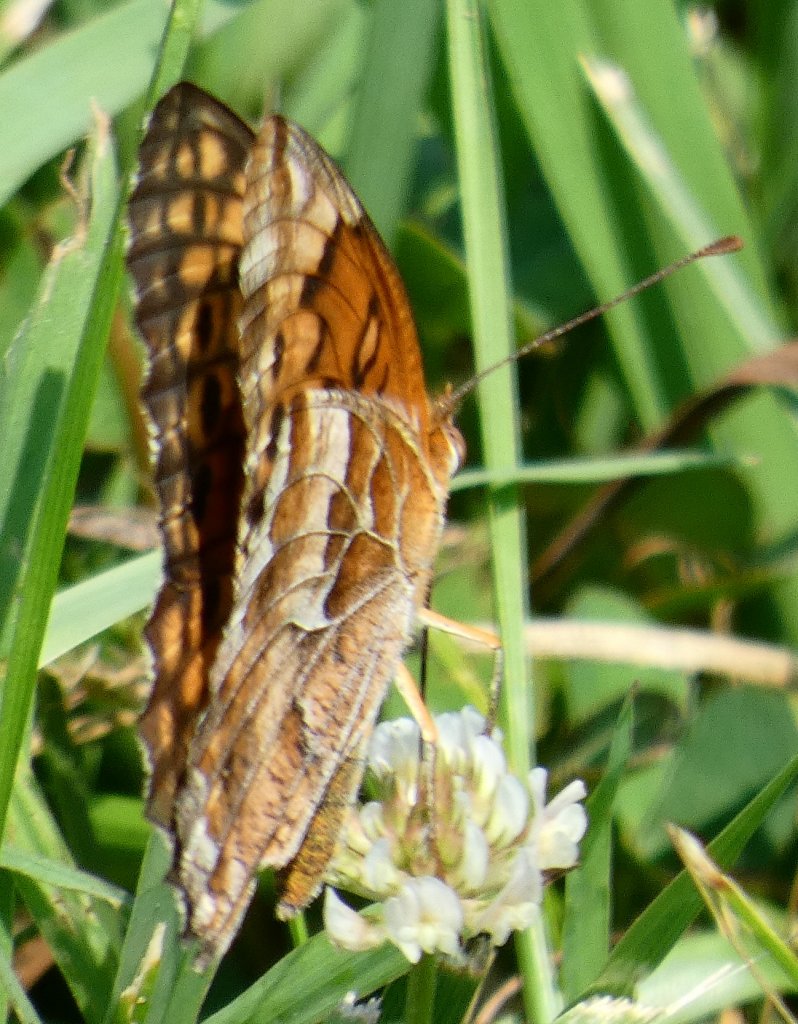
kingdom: Animalia
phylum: Arthropoda
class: Insecta
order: Lepidoptera
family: Nymphalidae
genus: Euptoieta
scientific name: Euptoieta claudia
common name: Variegated Fritillary
